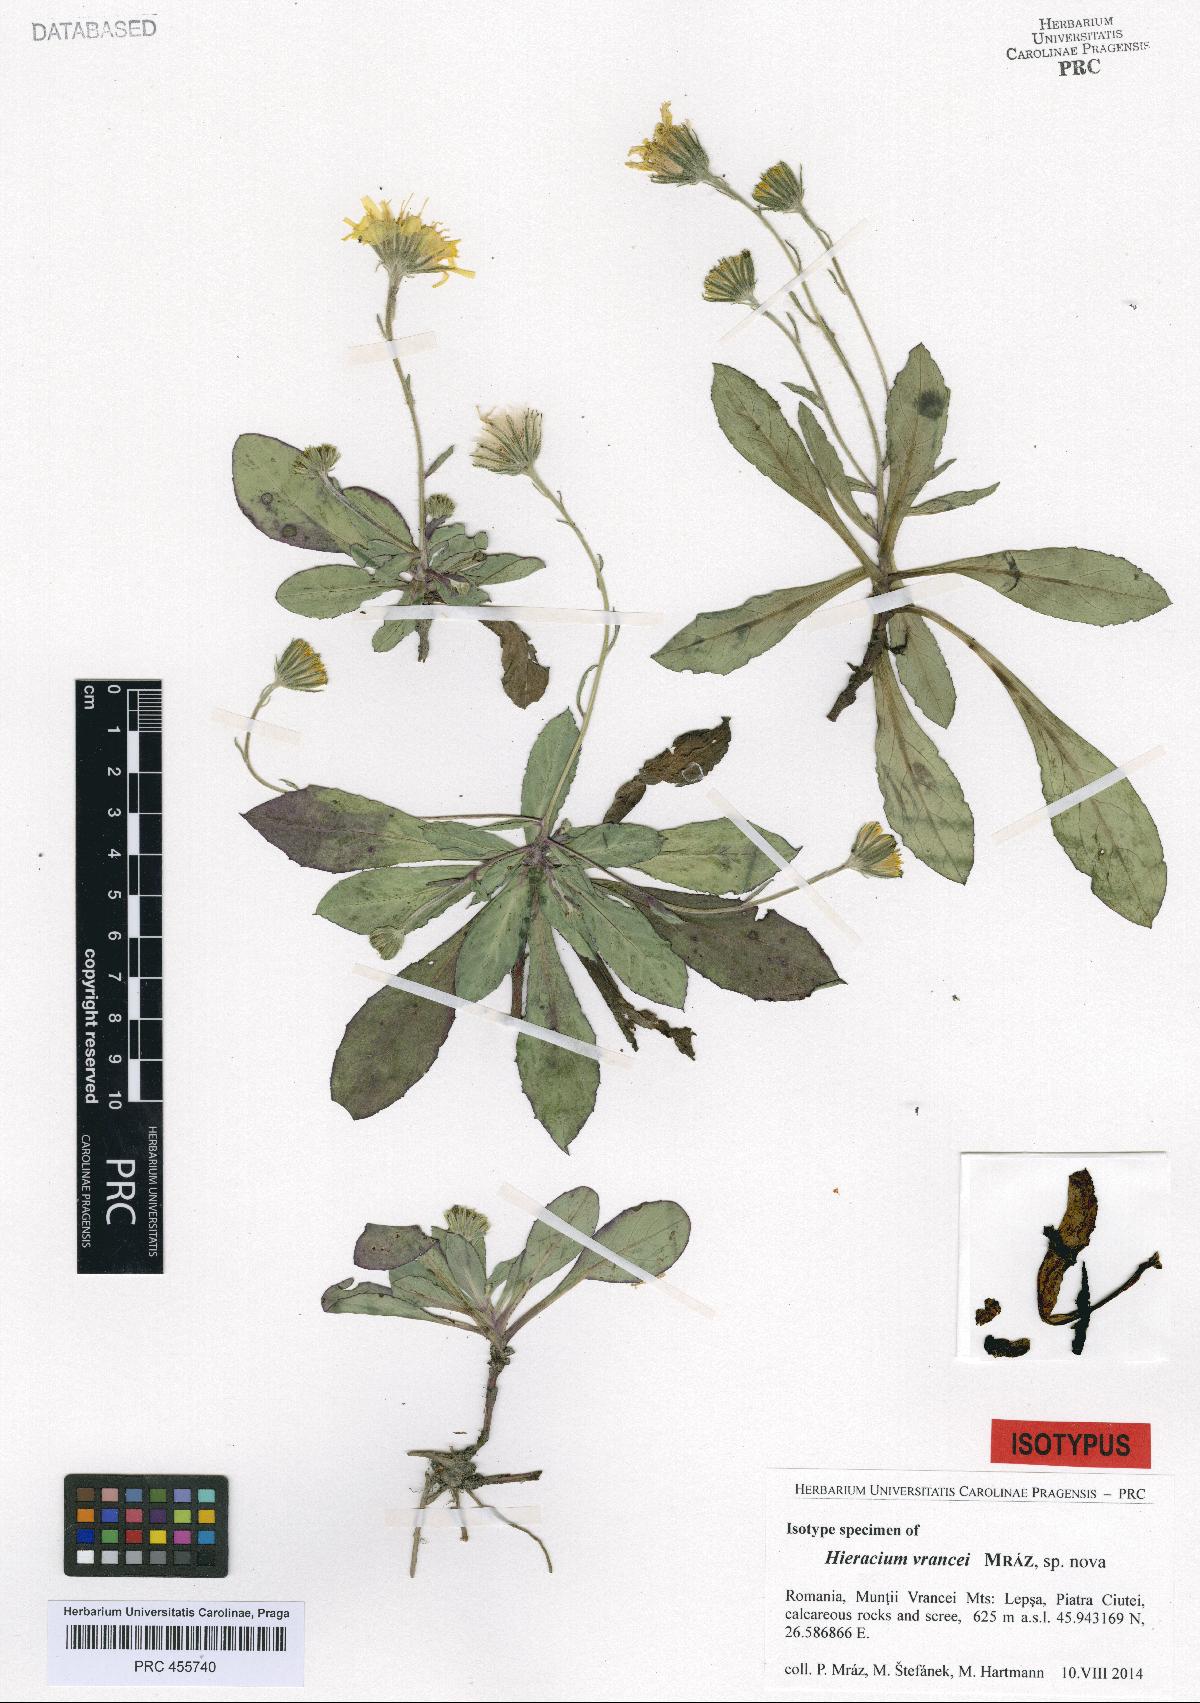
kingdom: Plantae
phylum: Tracheophyta
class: Magnoliopsida
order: Asterales
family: Asteraceae
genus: Hieracium
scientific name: Hieracium
